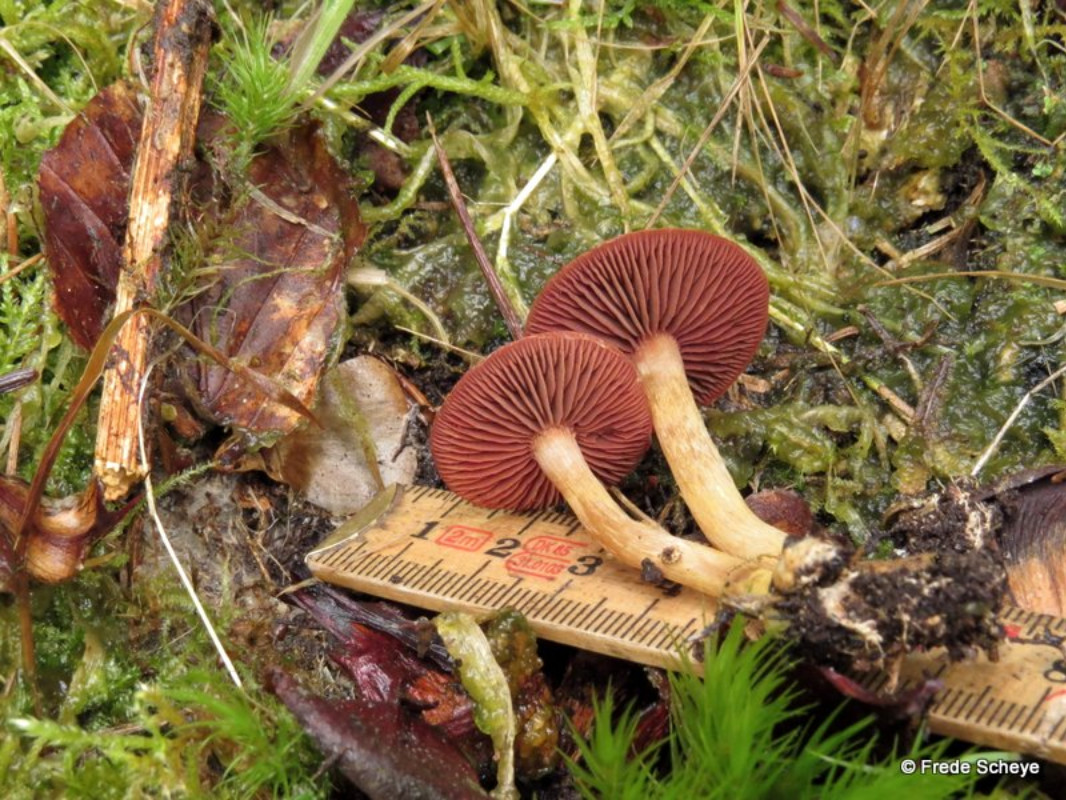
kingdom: Fungi
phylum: Basidiomycota
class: Agaricomycetes
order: Agaricales
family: Cortinariaceae
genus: Cortinarius
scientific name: Cortinarius
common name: cinnoberbladet slørhat
